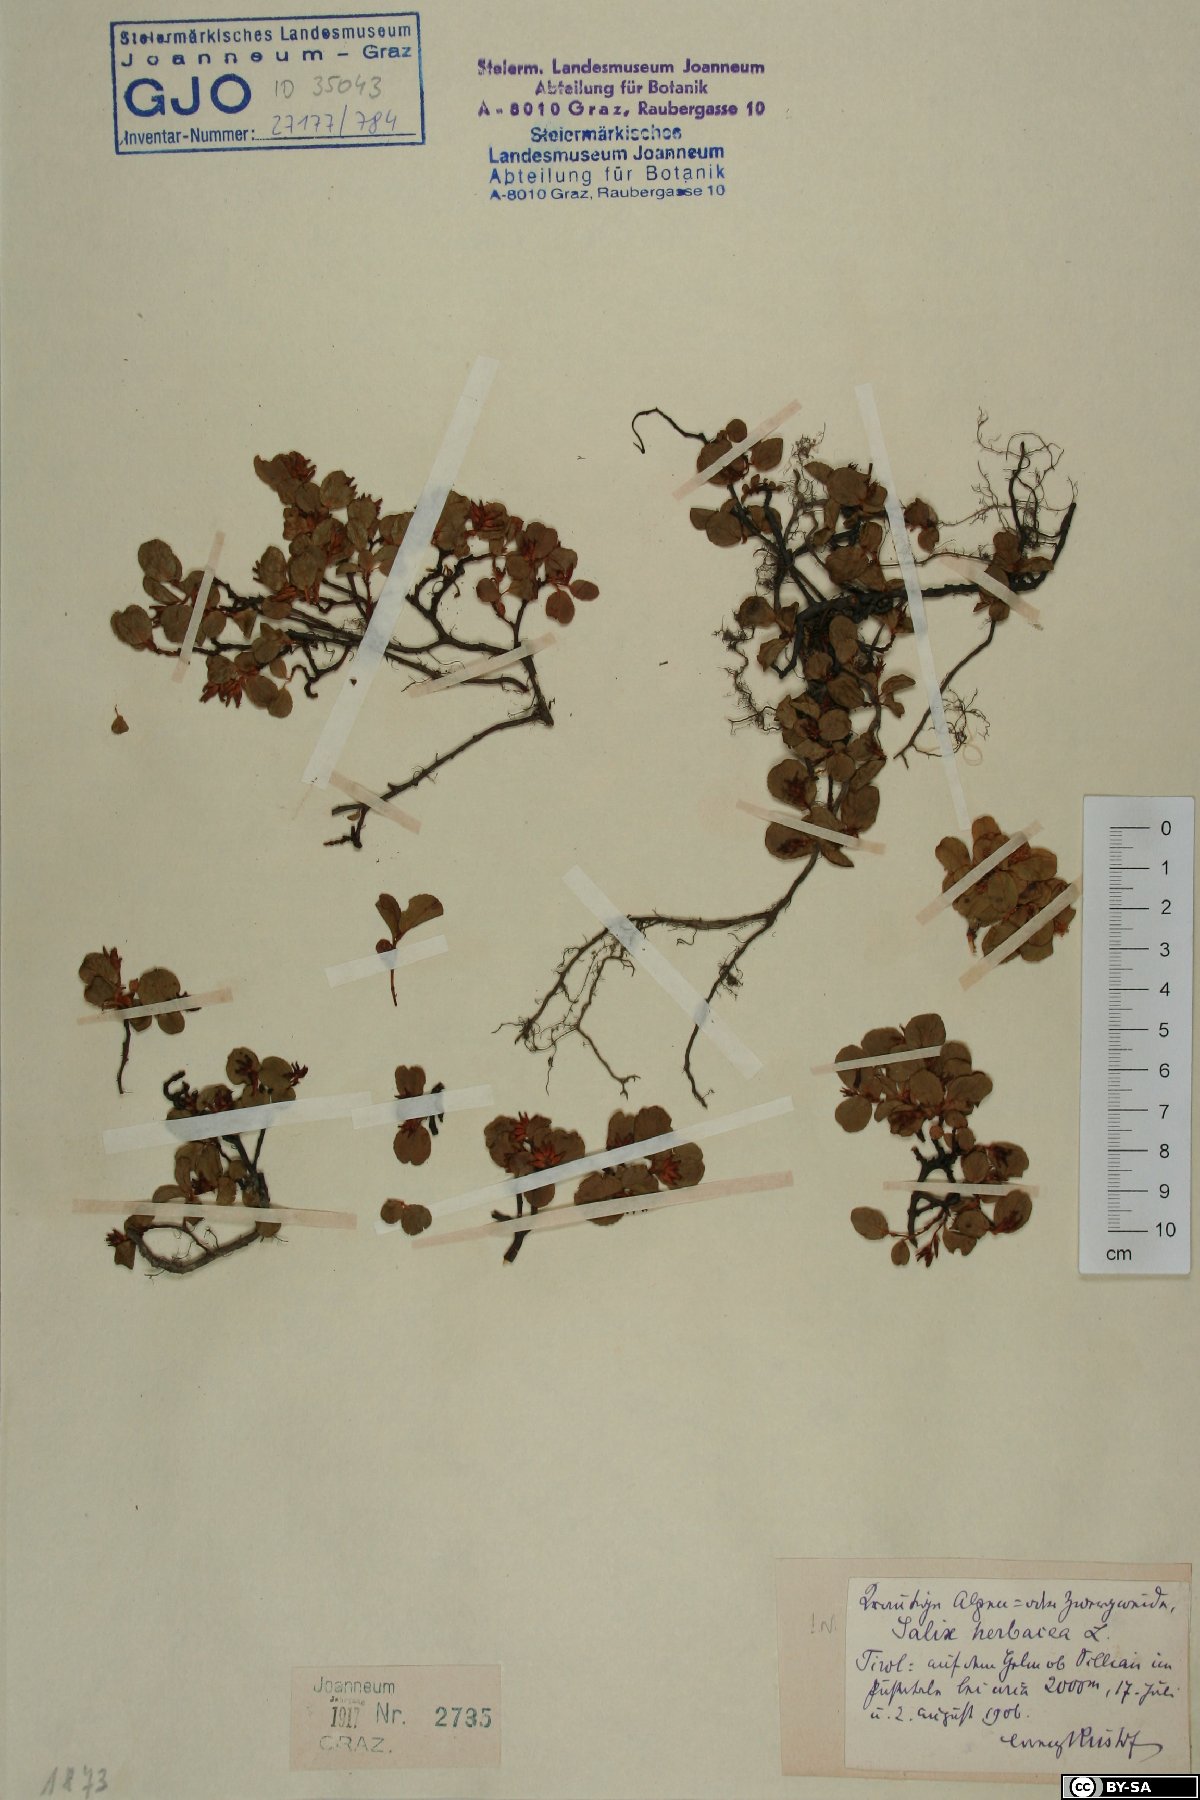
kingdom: Plantae
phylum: Tracheophyta
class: Magnoliopsida
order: Malpighiales
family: Salicaceae
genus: Salix
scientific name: Salix herbacea
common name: Dwarf willow
